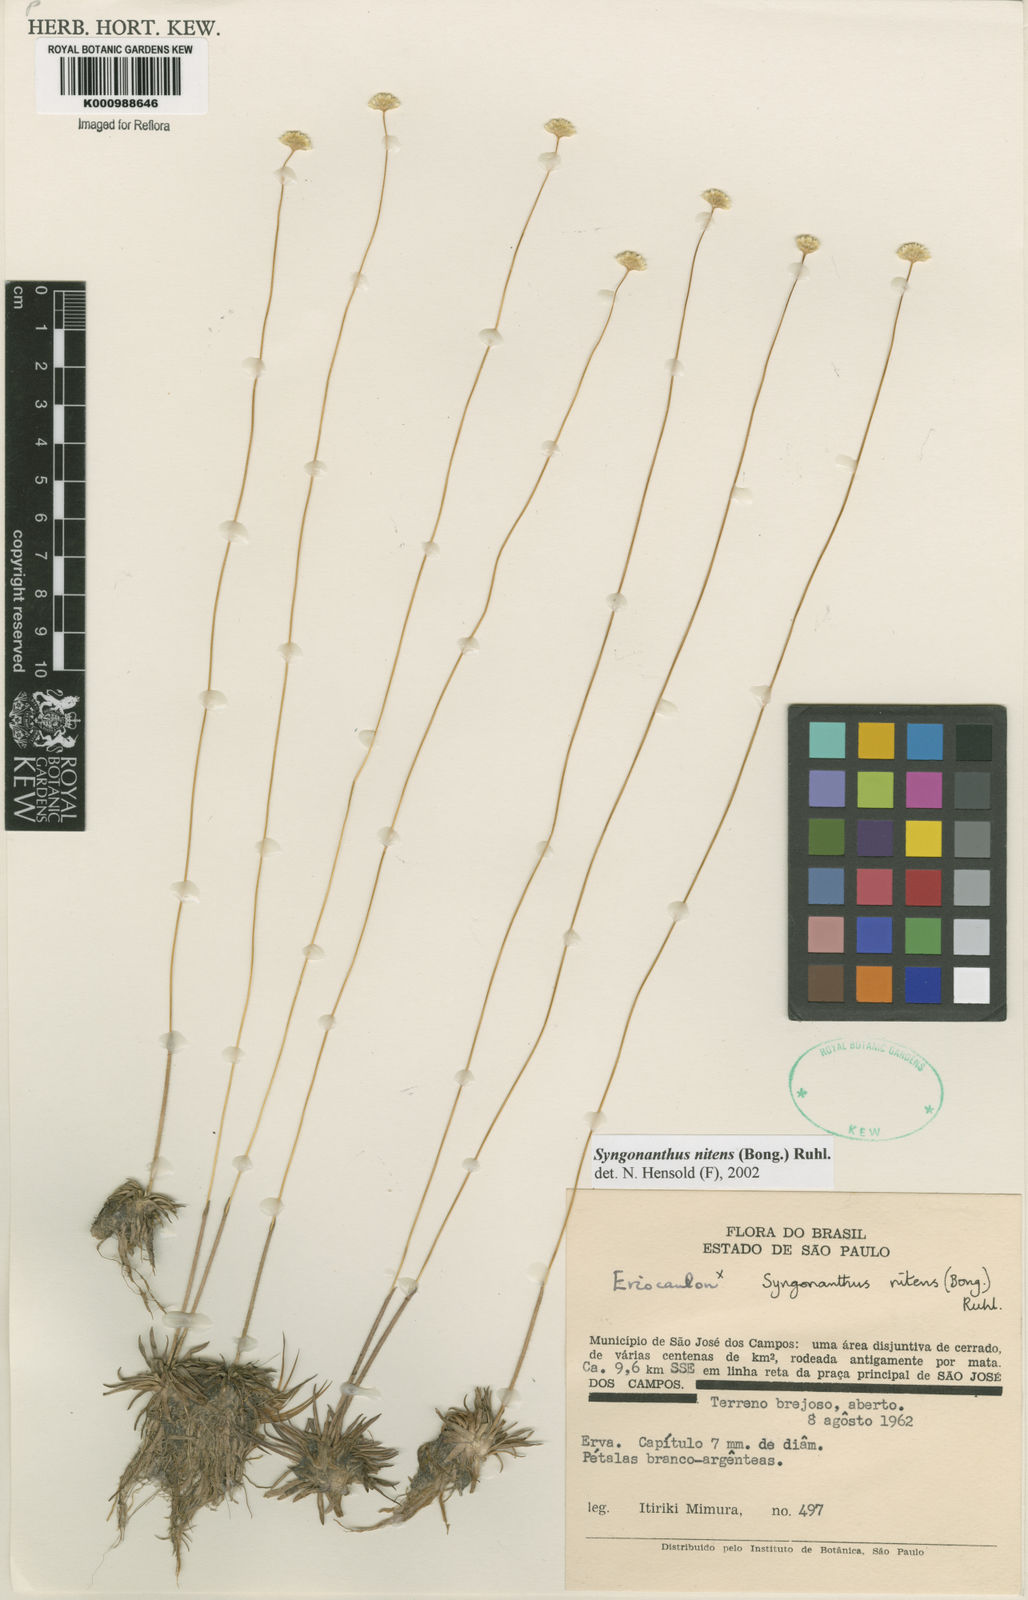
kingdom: Plantae
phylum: Tracheophyta
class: Liliopsida
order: Poales
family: Eriocaulaceae
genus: Syngonanthus
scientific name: Syngonanthus nitens
